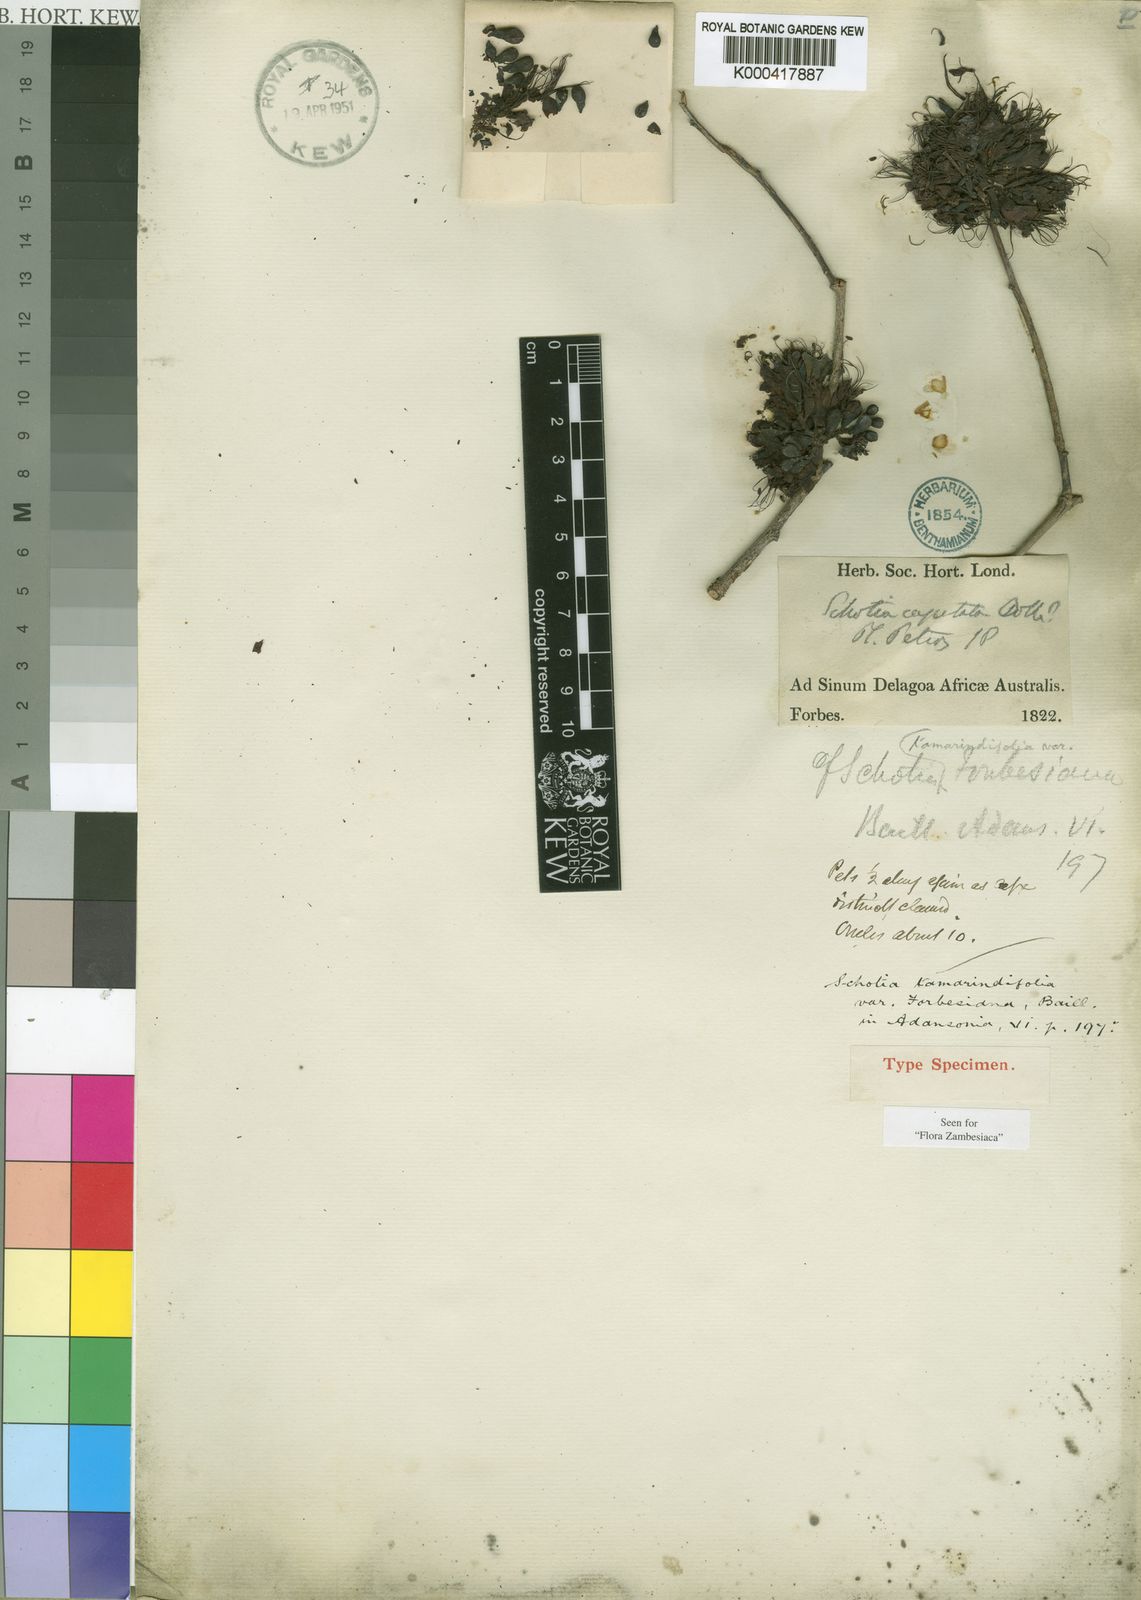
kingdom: Plantae
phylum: Tracheophyta
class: Magnoliopsida
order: Fabales
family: Fabaceae
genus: Schotia
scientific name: Schotia capitata
